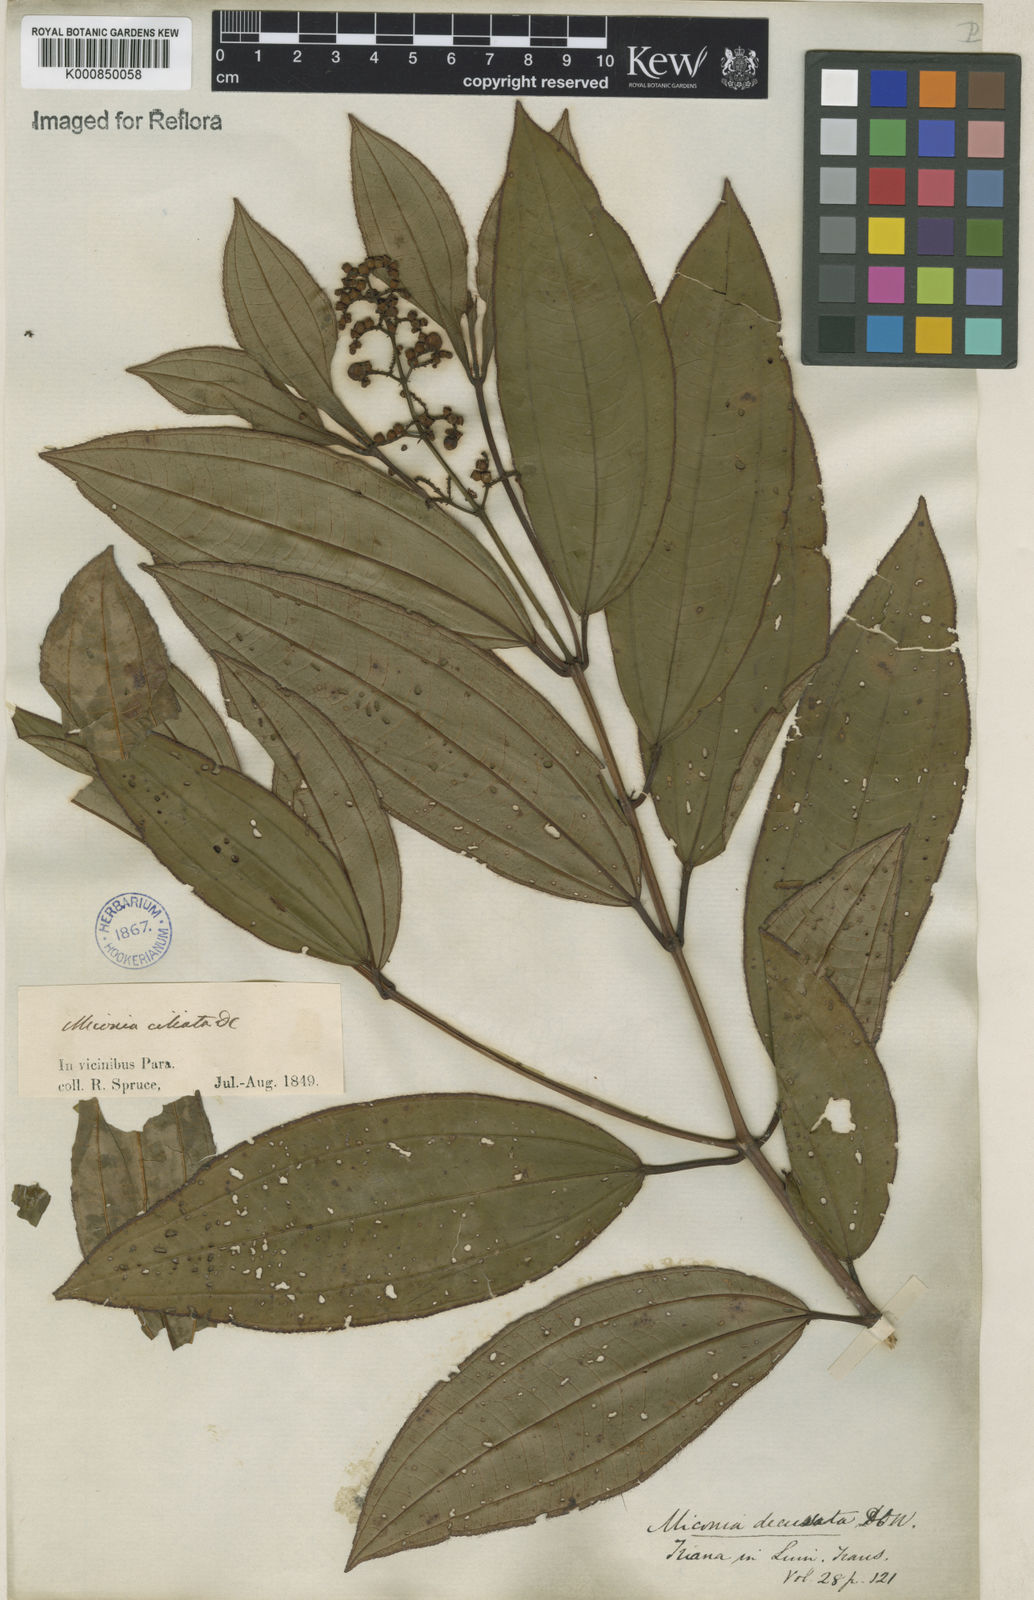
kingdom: Plantae
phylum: Tracheophyta
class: Magnoliopsida
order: Myrtales
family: Melastomataceae
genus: Miconia
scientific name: Miconia ciliata
